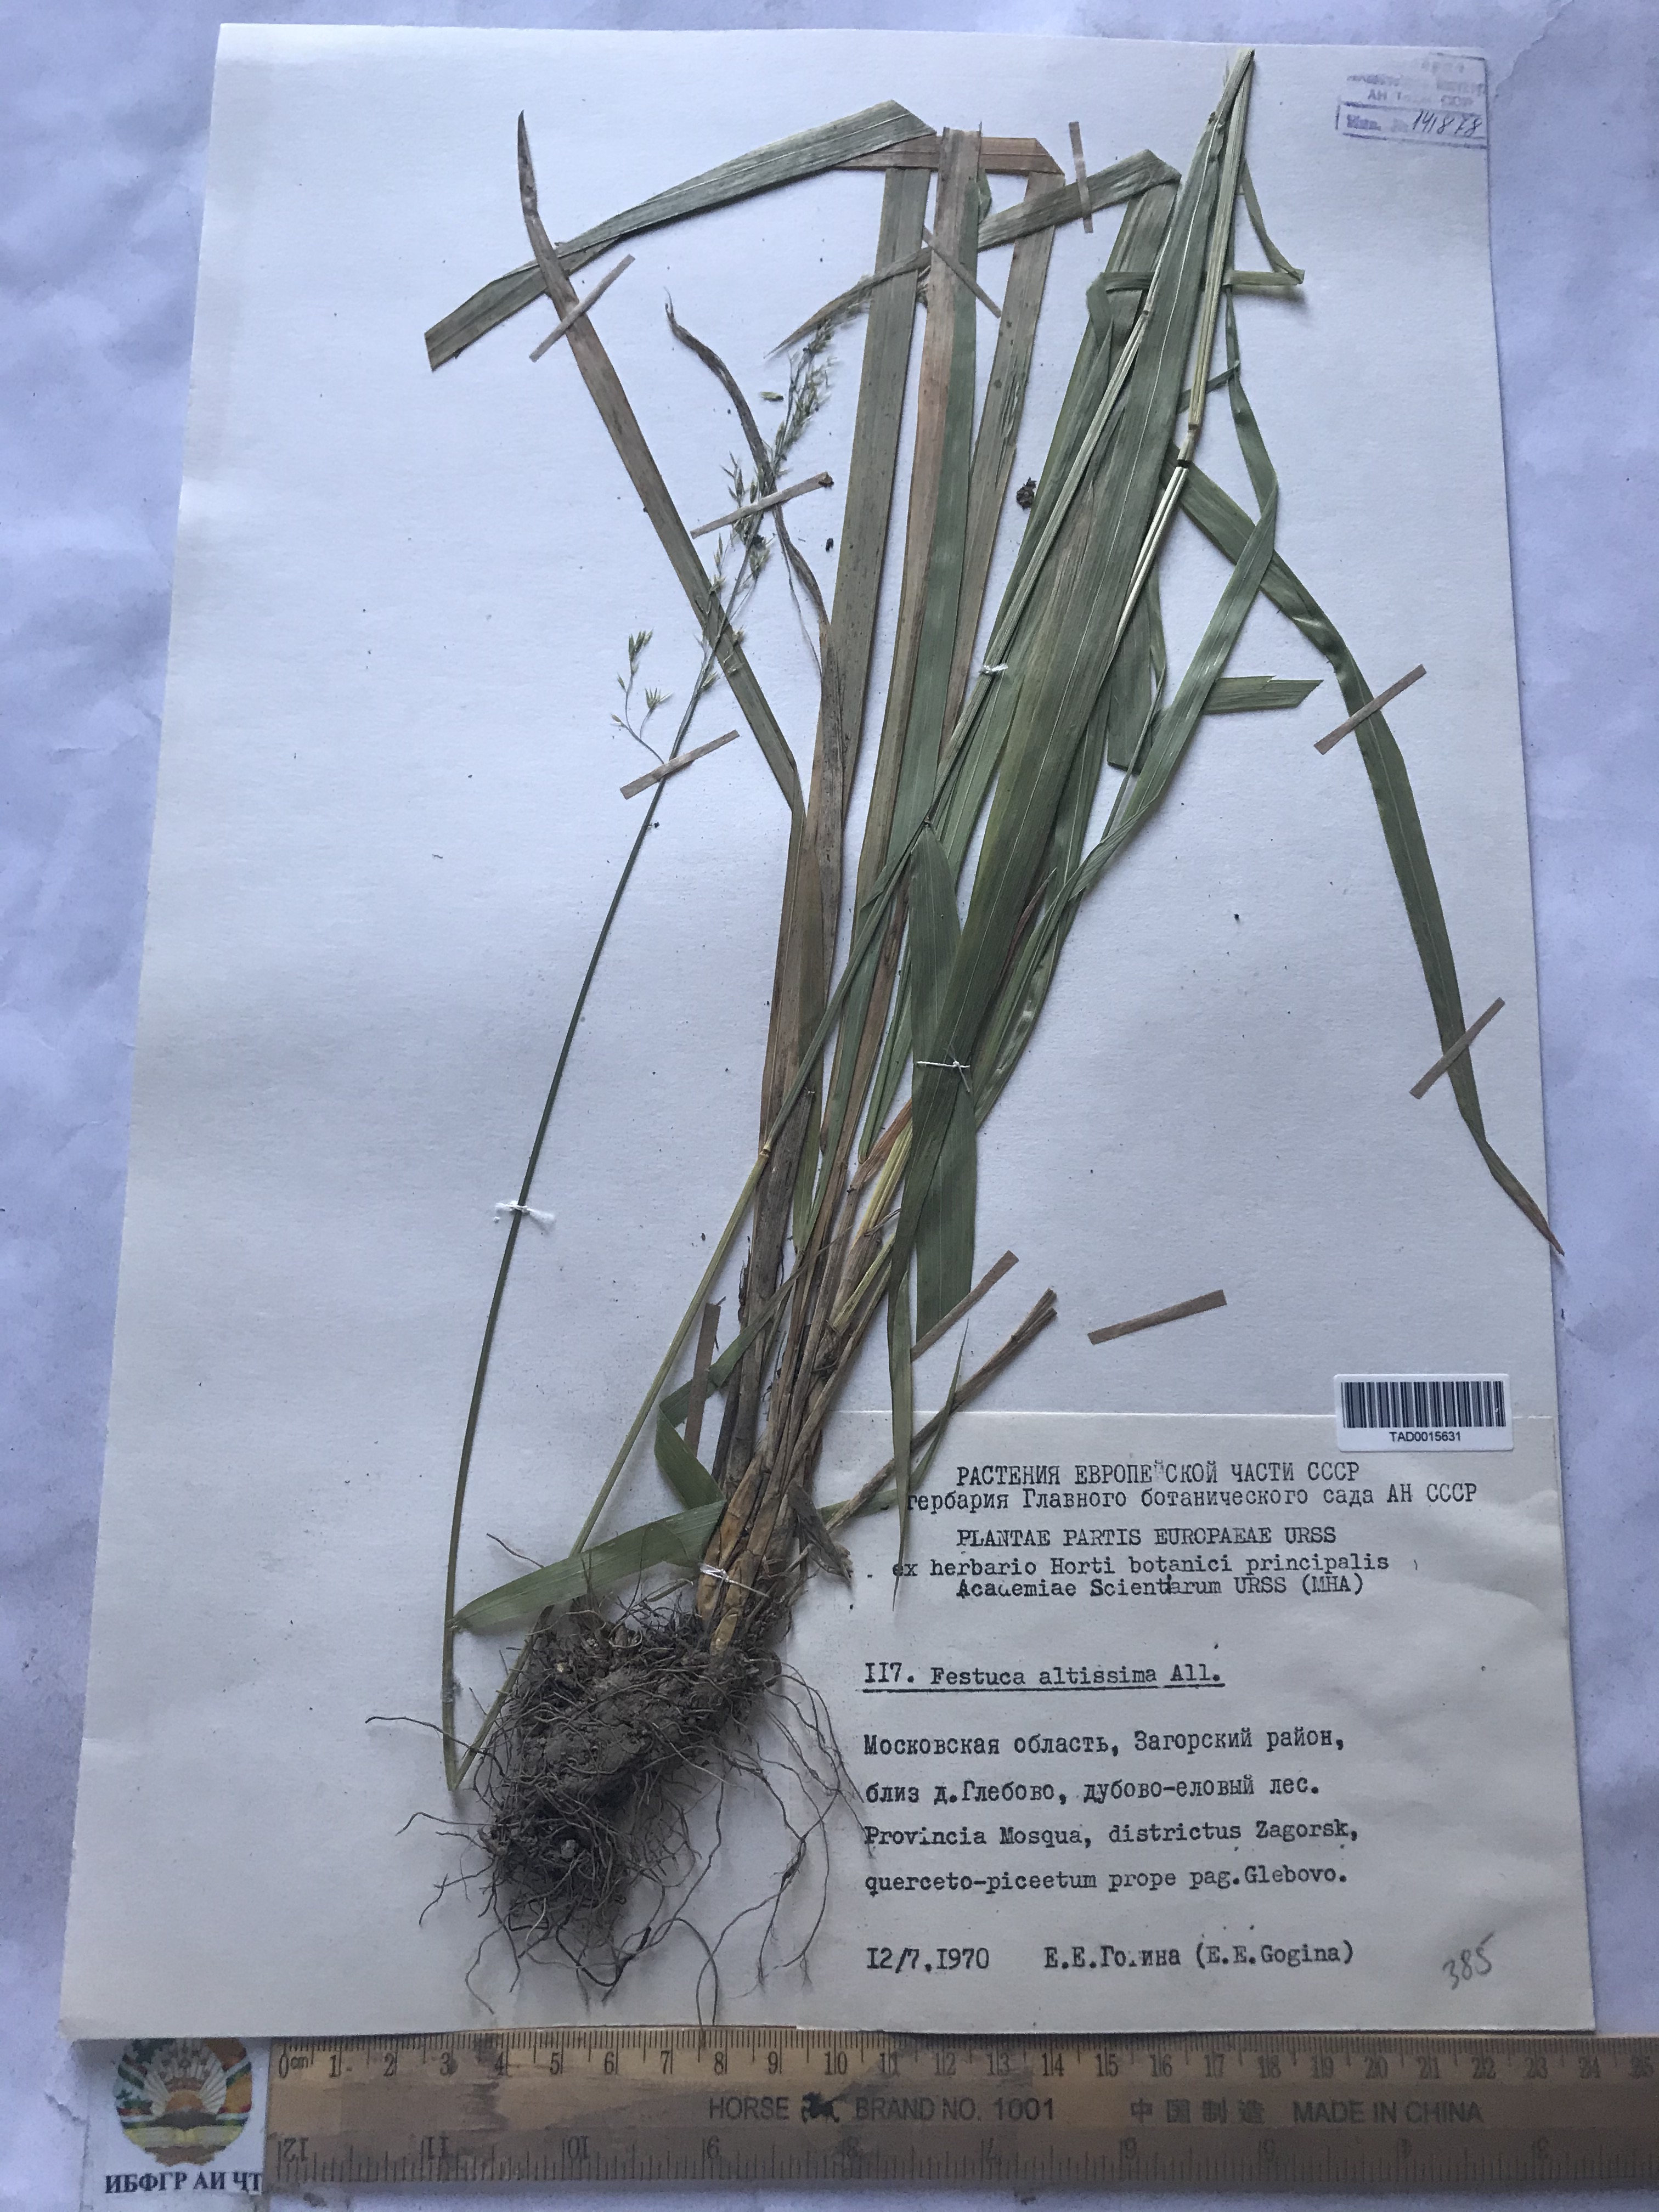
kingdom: Plantae
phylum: Tracheophyta
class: Liliopsida
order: Poales
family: Poaceae
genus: Festuca
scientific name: Festuca altissima
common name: Wood fescue
